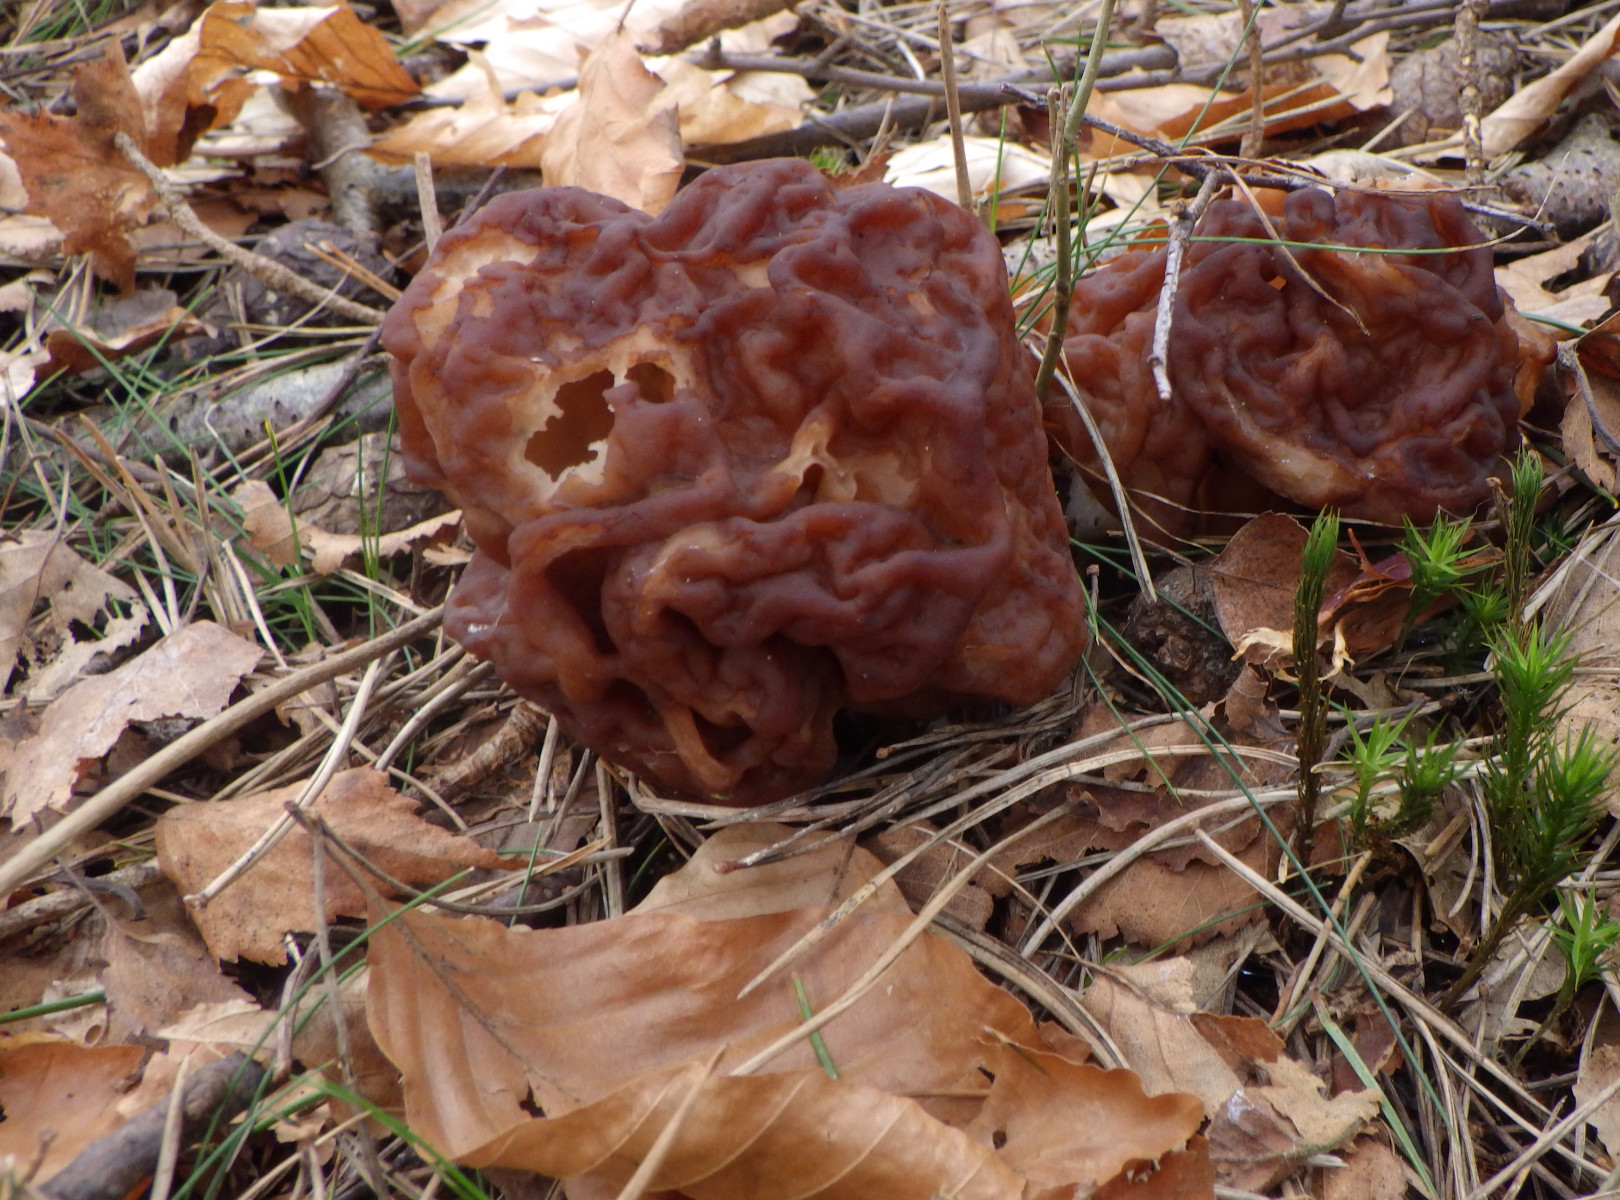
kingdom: Fungi
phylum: Ascomycota
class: Pezizomycetes
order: Pezizales
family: Discinaceae
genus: Gyromitra
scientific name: Gyromitra esculenta
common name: ægte stenmorkel
